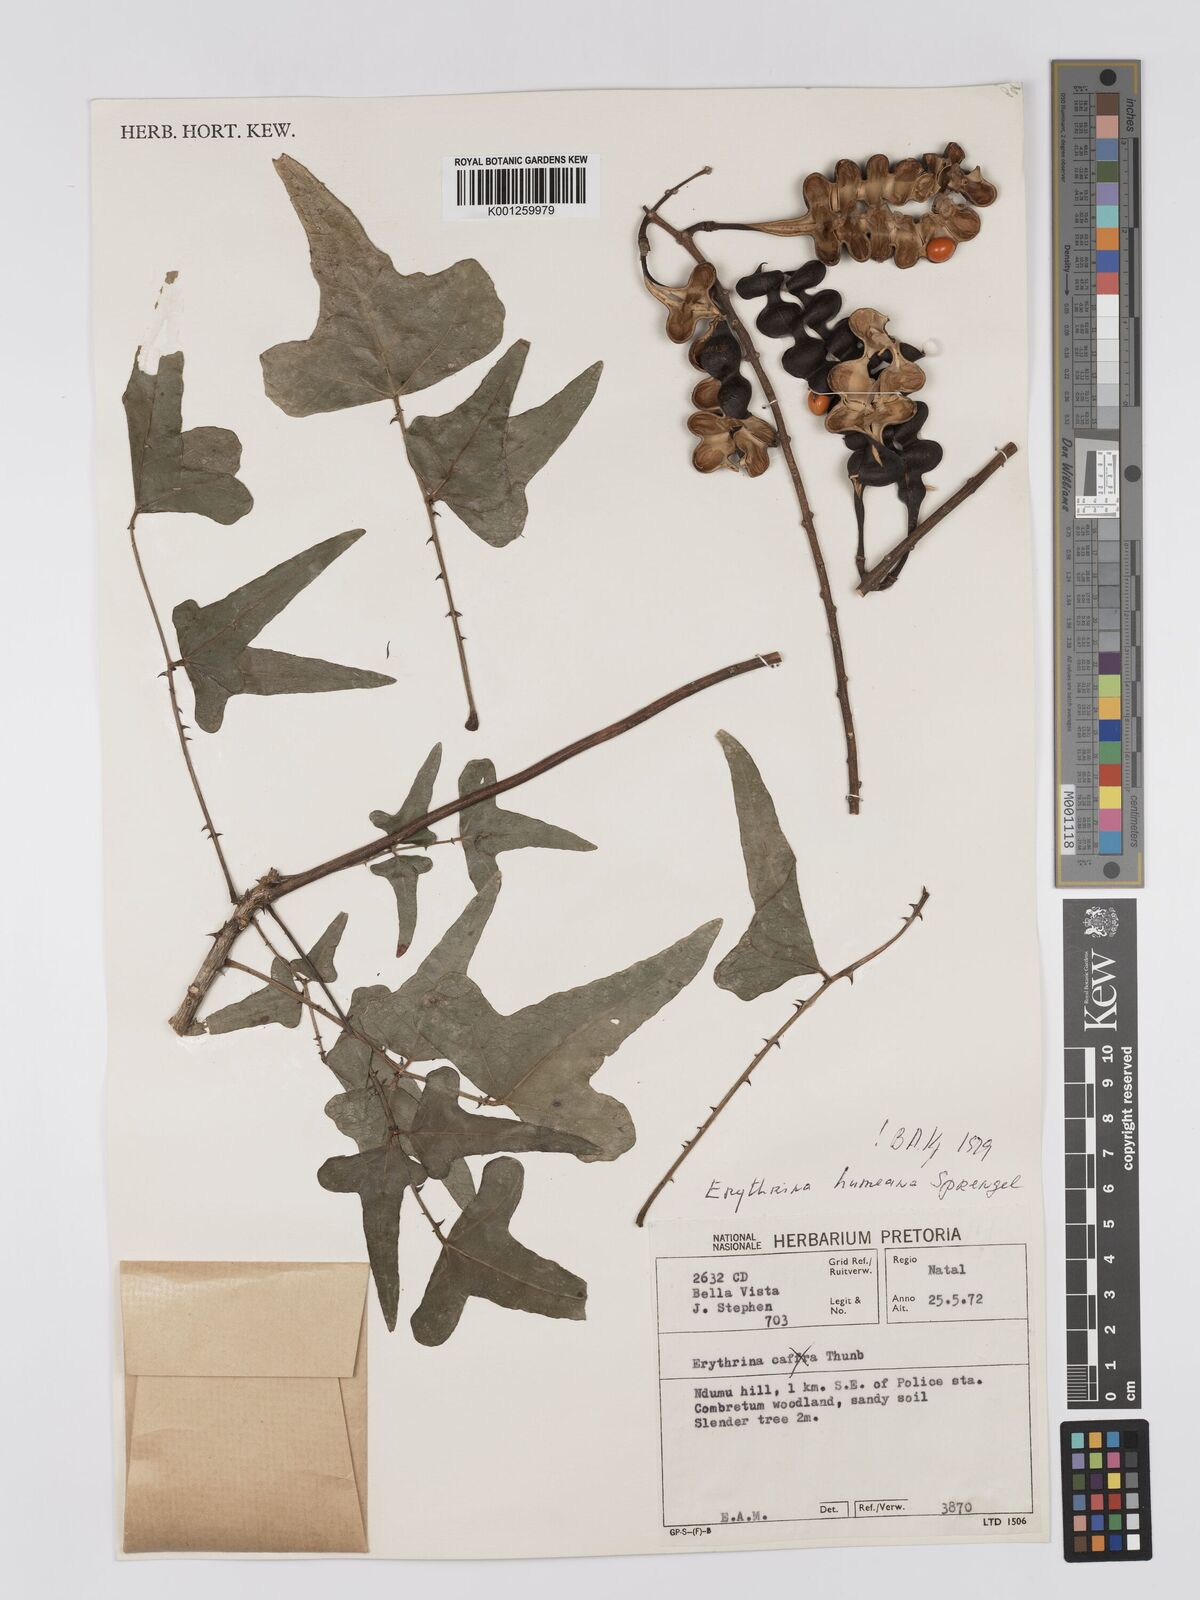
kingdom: Plantae
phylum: Tracheophyta
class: Magnoliopsida
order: Fabales
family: Fabaceae
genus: Erythrina
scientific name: Erythrina humeana
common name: Dwarf coral tree
